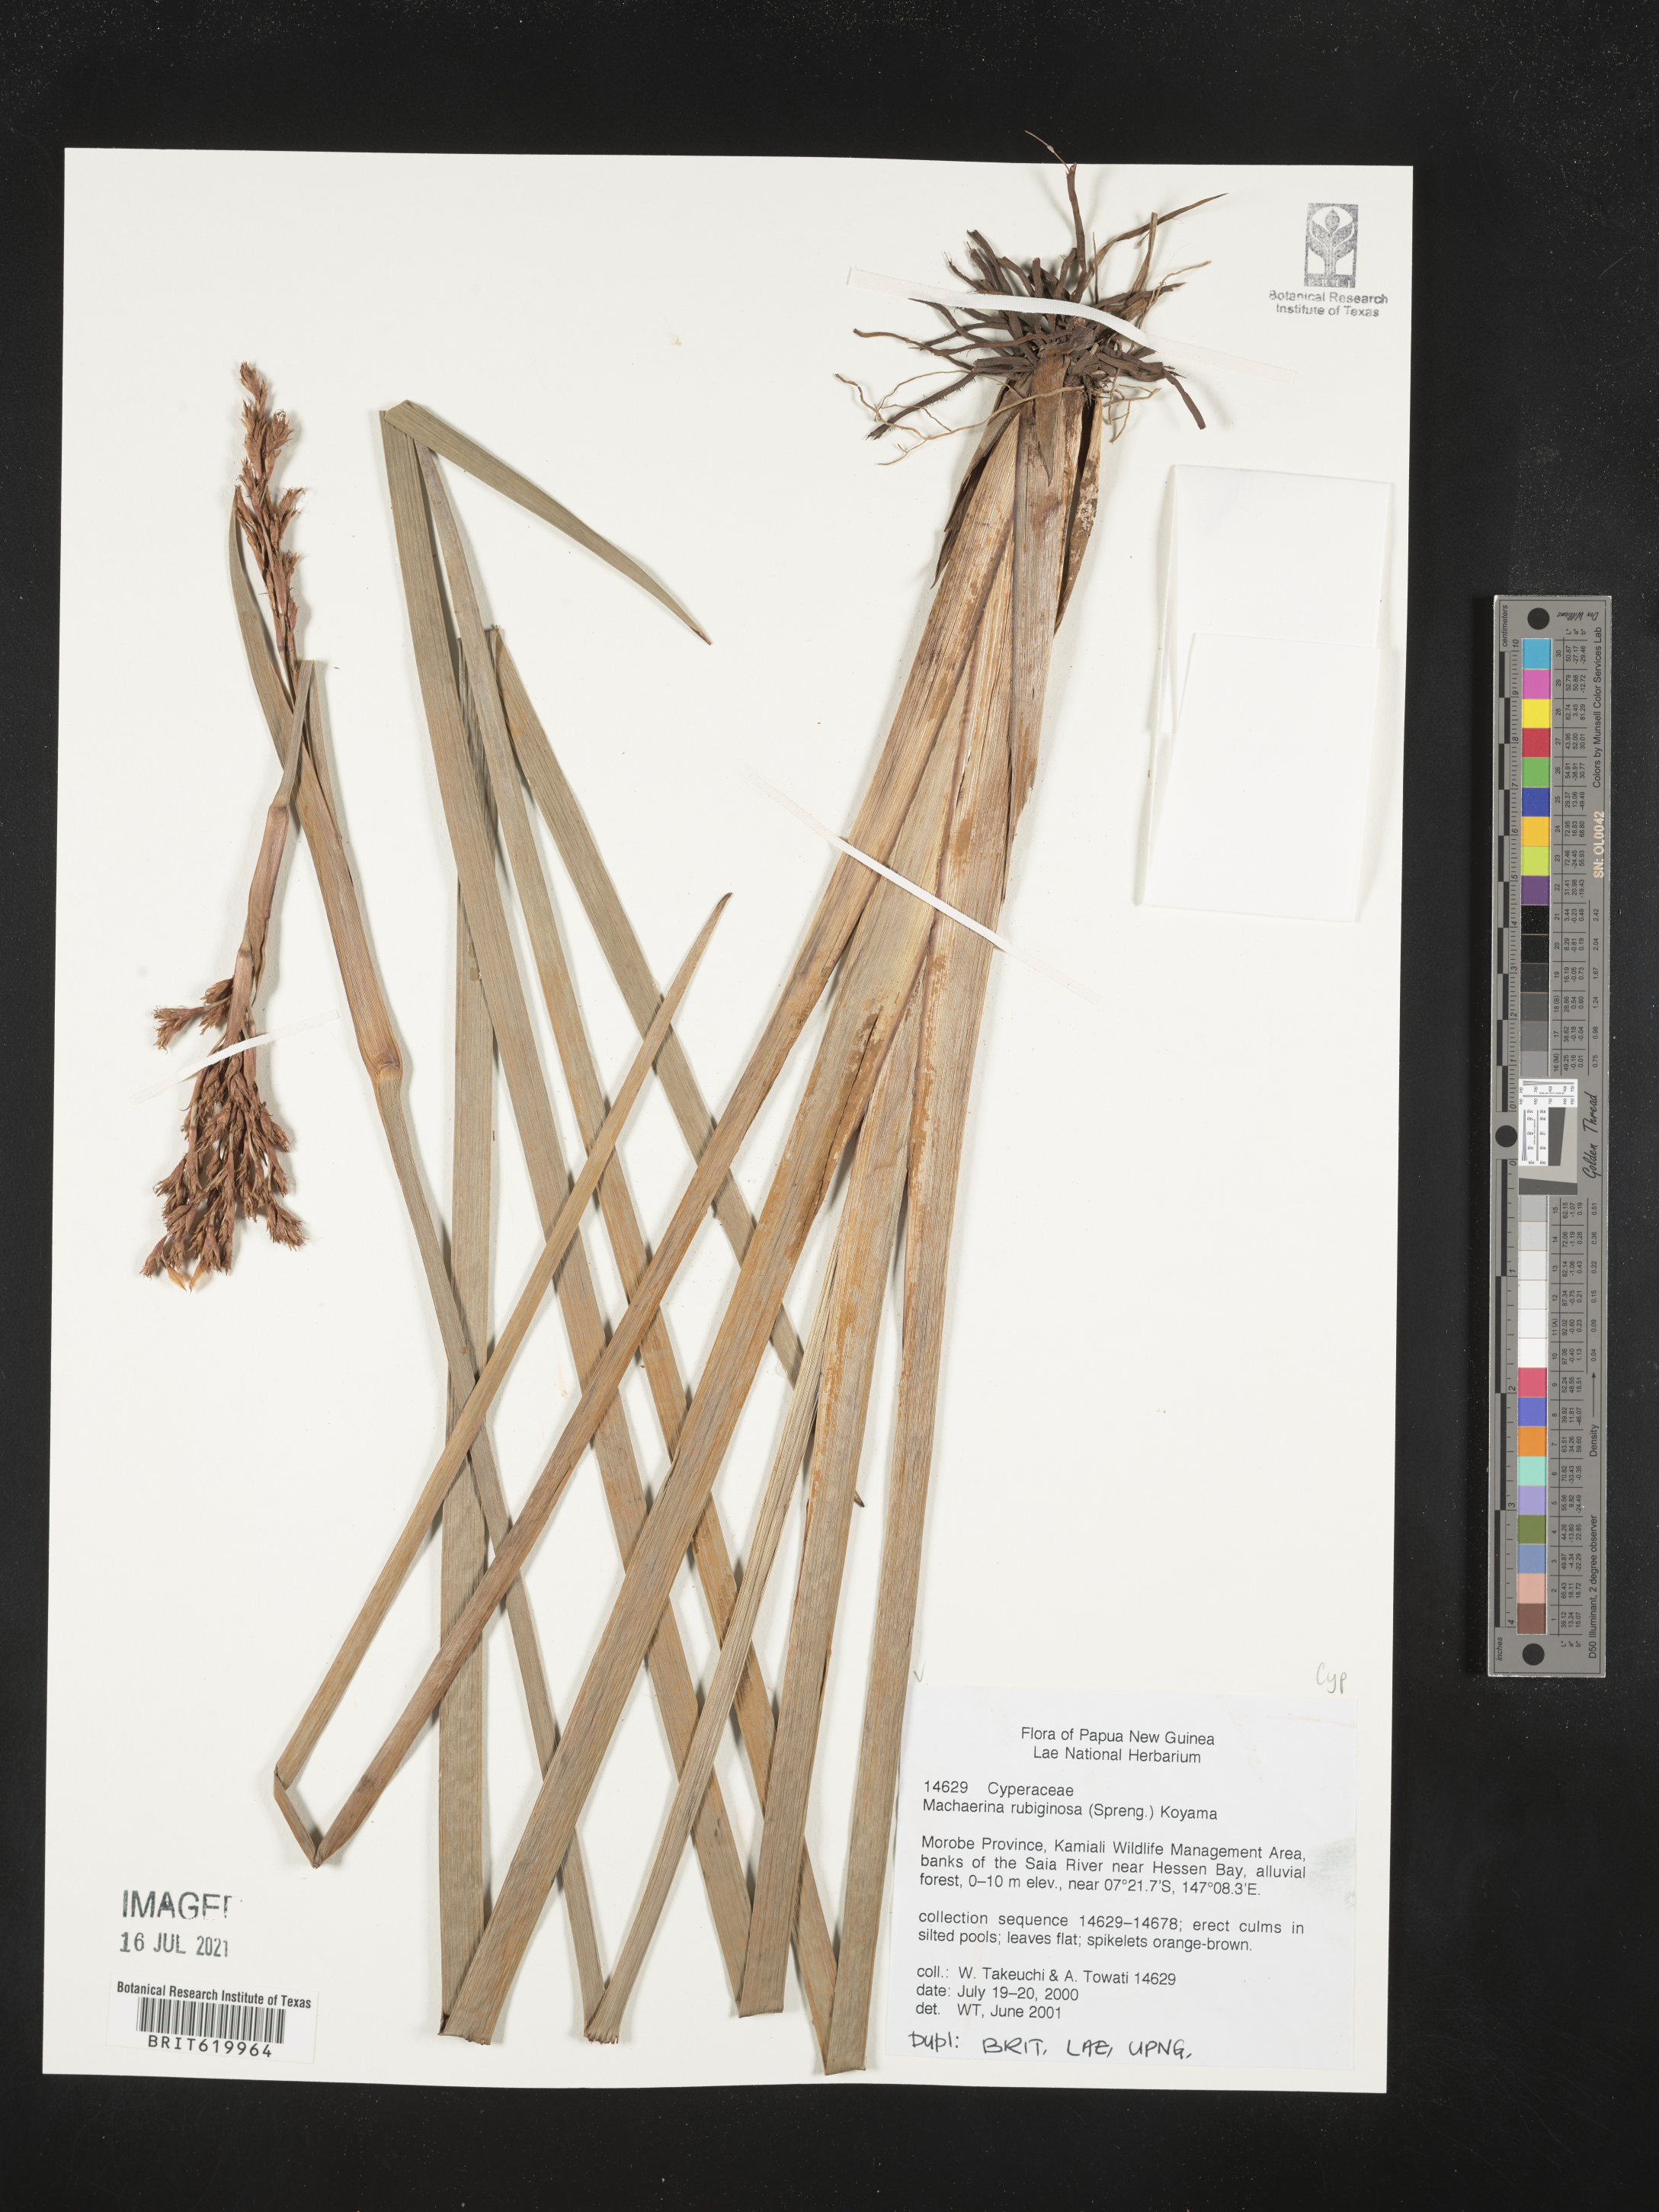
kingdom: Plantae
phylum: Tracheophyta
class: Liliopsida
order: Poales
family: Cyperaceae
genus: Machaerina
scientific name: Machaerina rubiginosa
